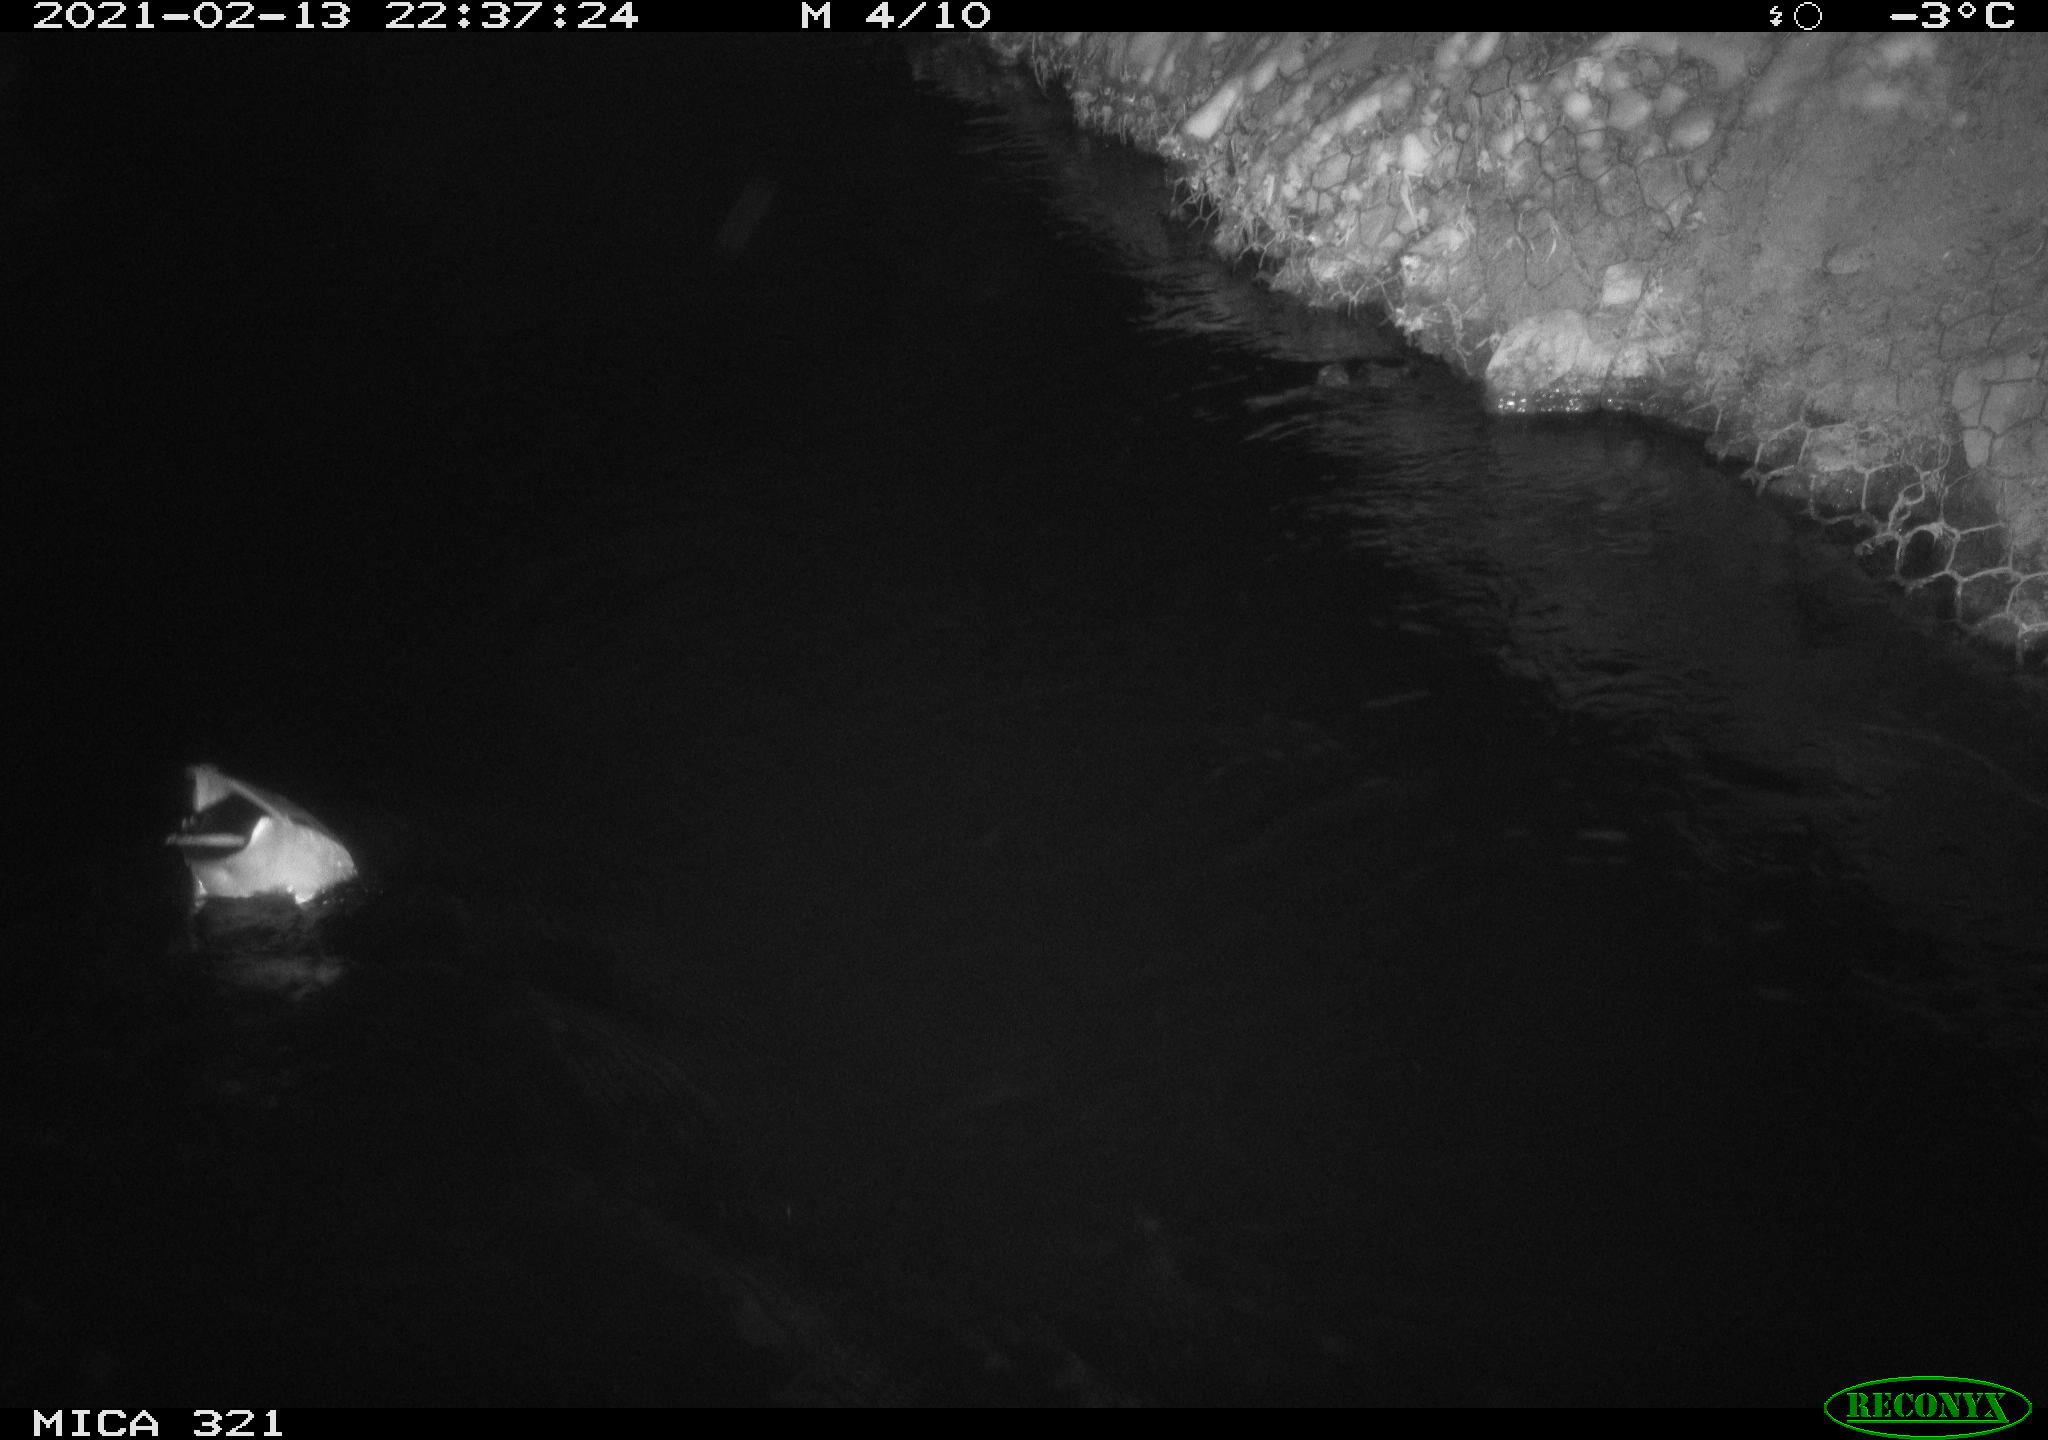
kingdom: Animalia
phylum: Chordata
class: Aves
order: Anseriformes
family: Anatidae
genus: Anas
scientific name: Anas platyrhynchos
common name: Mallard
